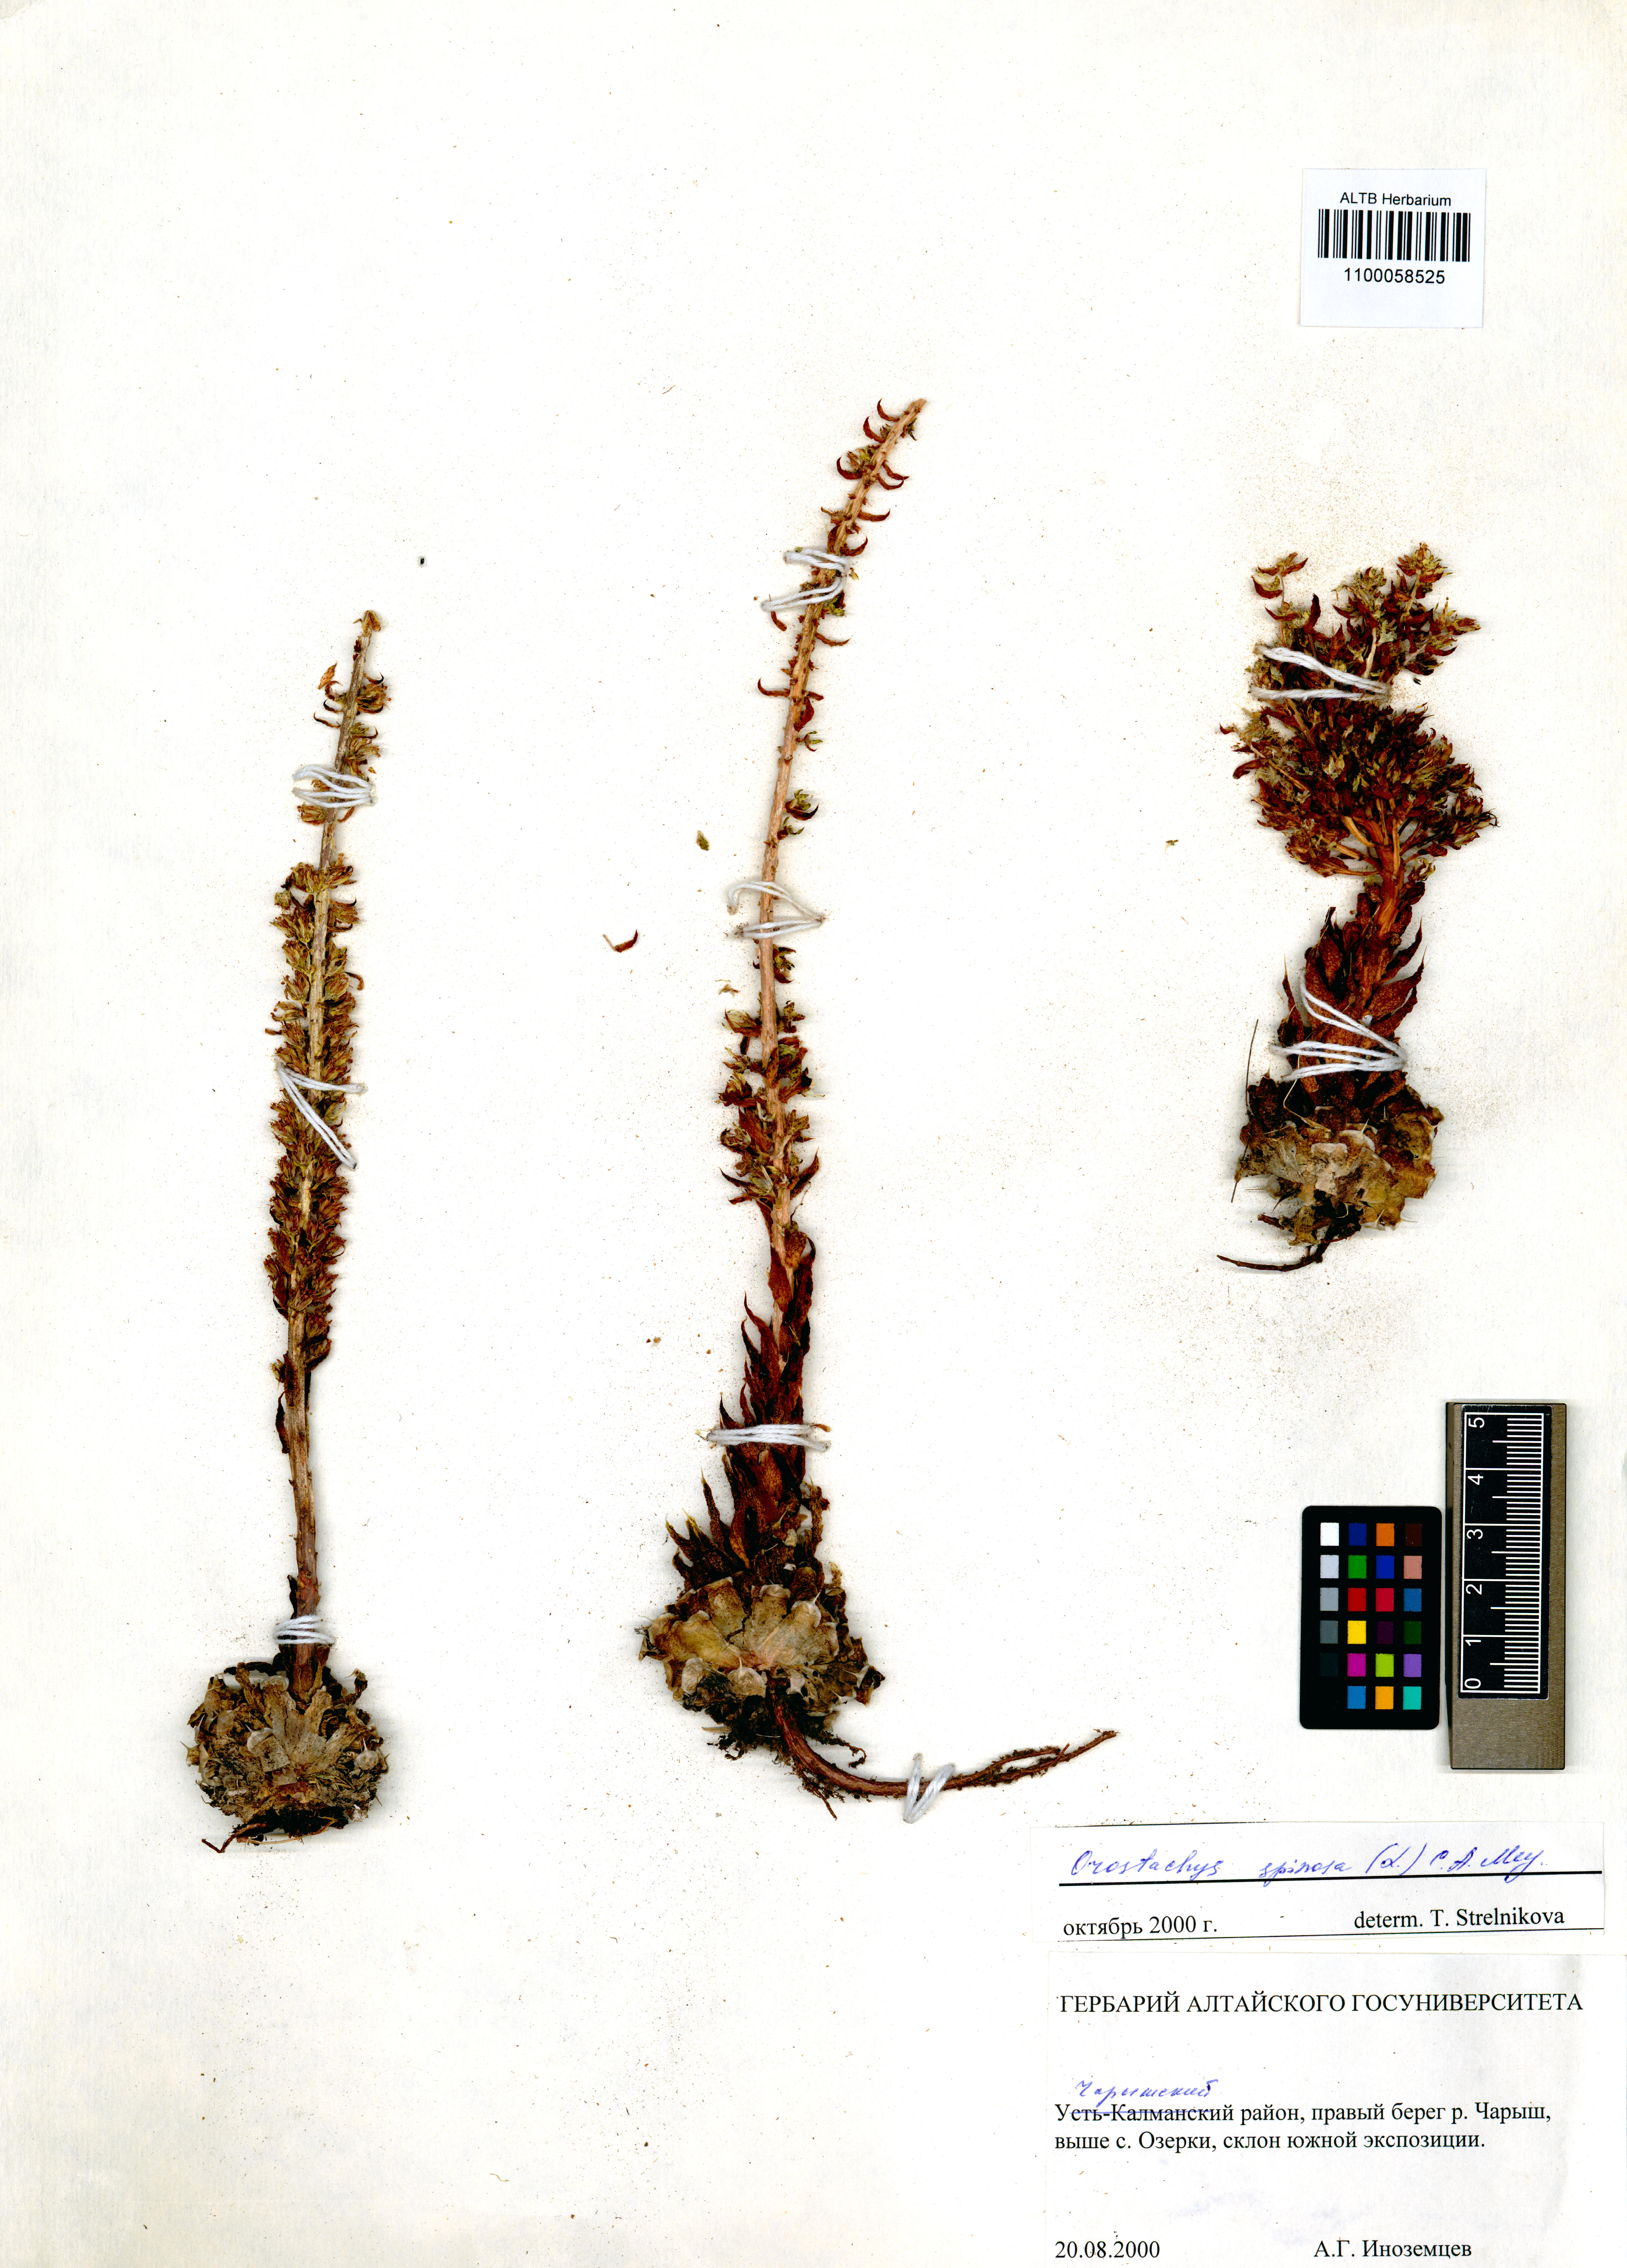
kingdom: Plantae
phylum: Tracheophyta
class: Magnoliopsida
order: Saxifragales
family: Crassulaceae
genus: Orostachys
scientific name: Orostachys spinosa
